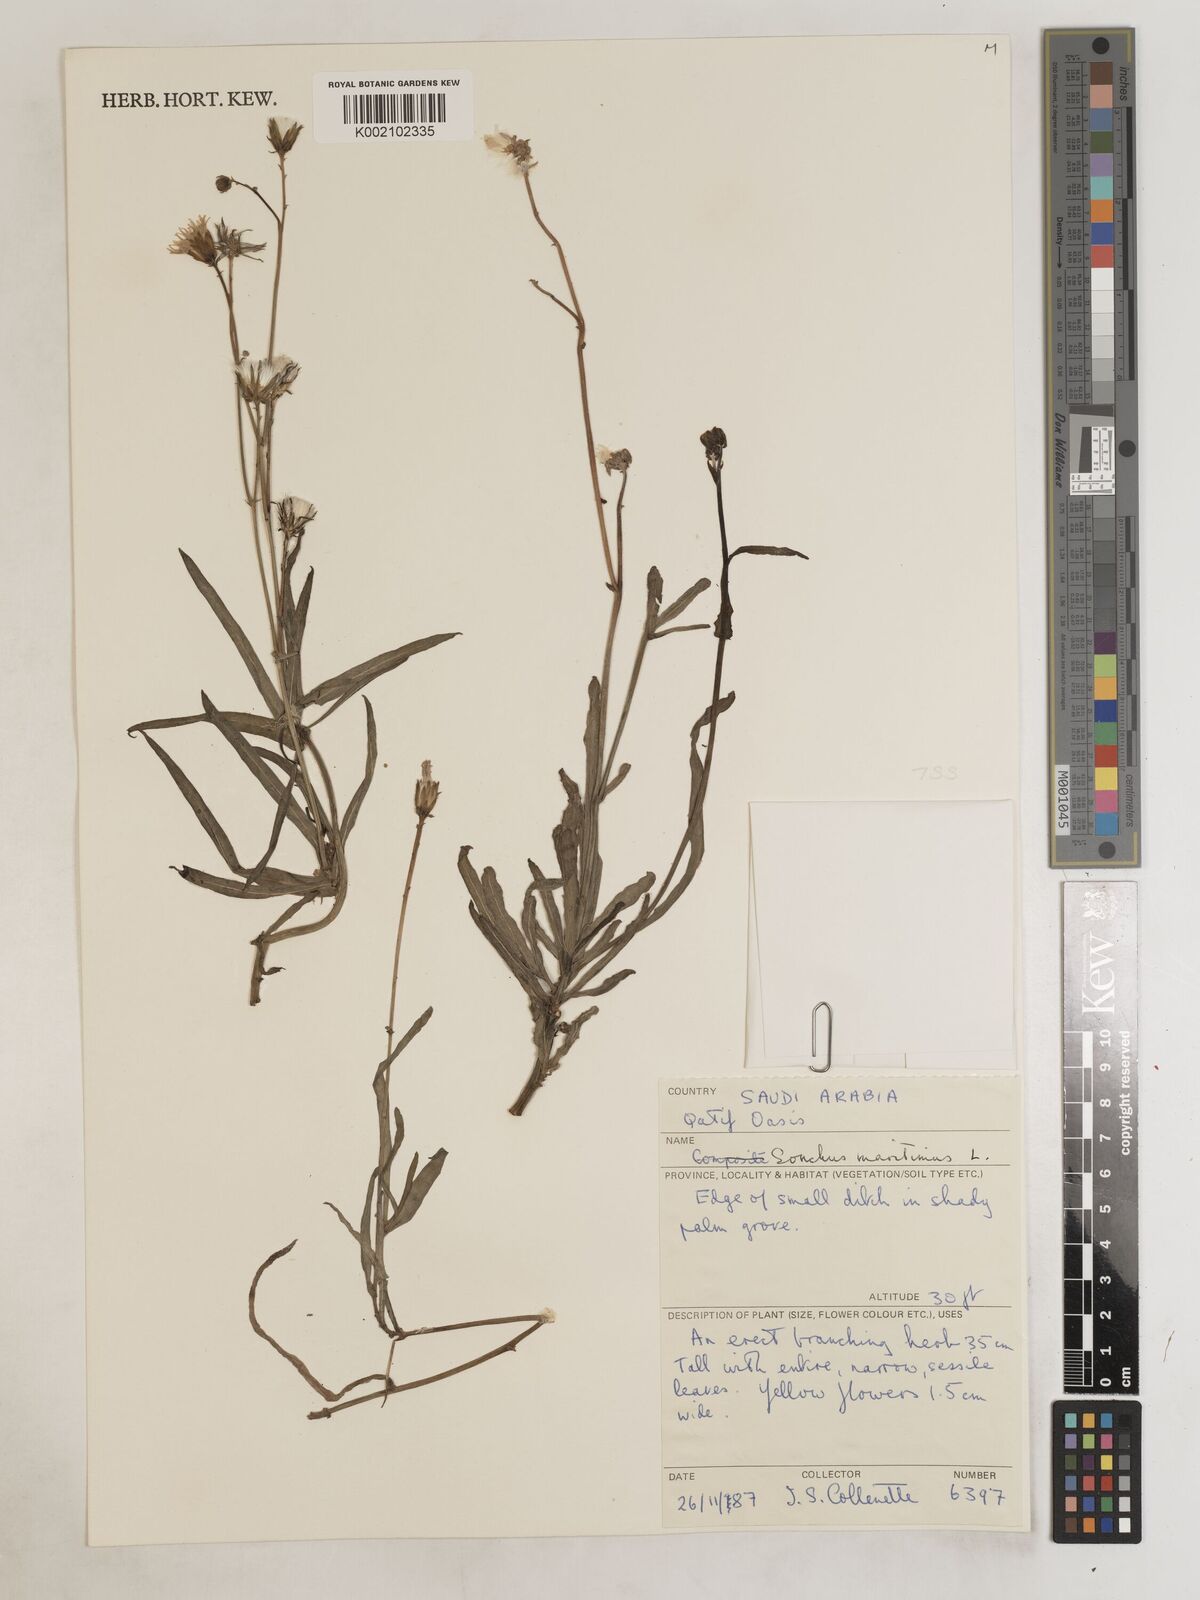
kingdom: Plantae
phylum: Tracheophyta
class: Magnoliopsida
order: Asterales
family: Asteraceae
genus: Sonchus
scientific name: Sonchus maritimus
